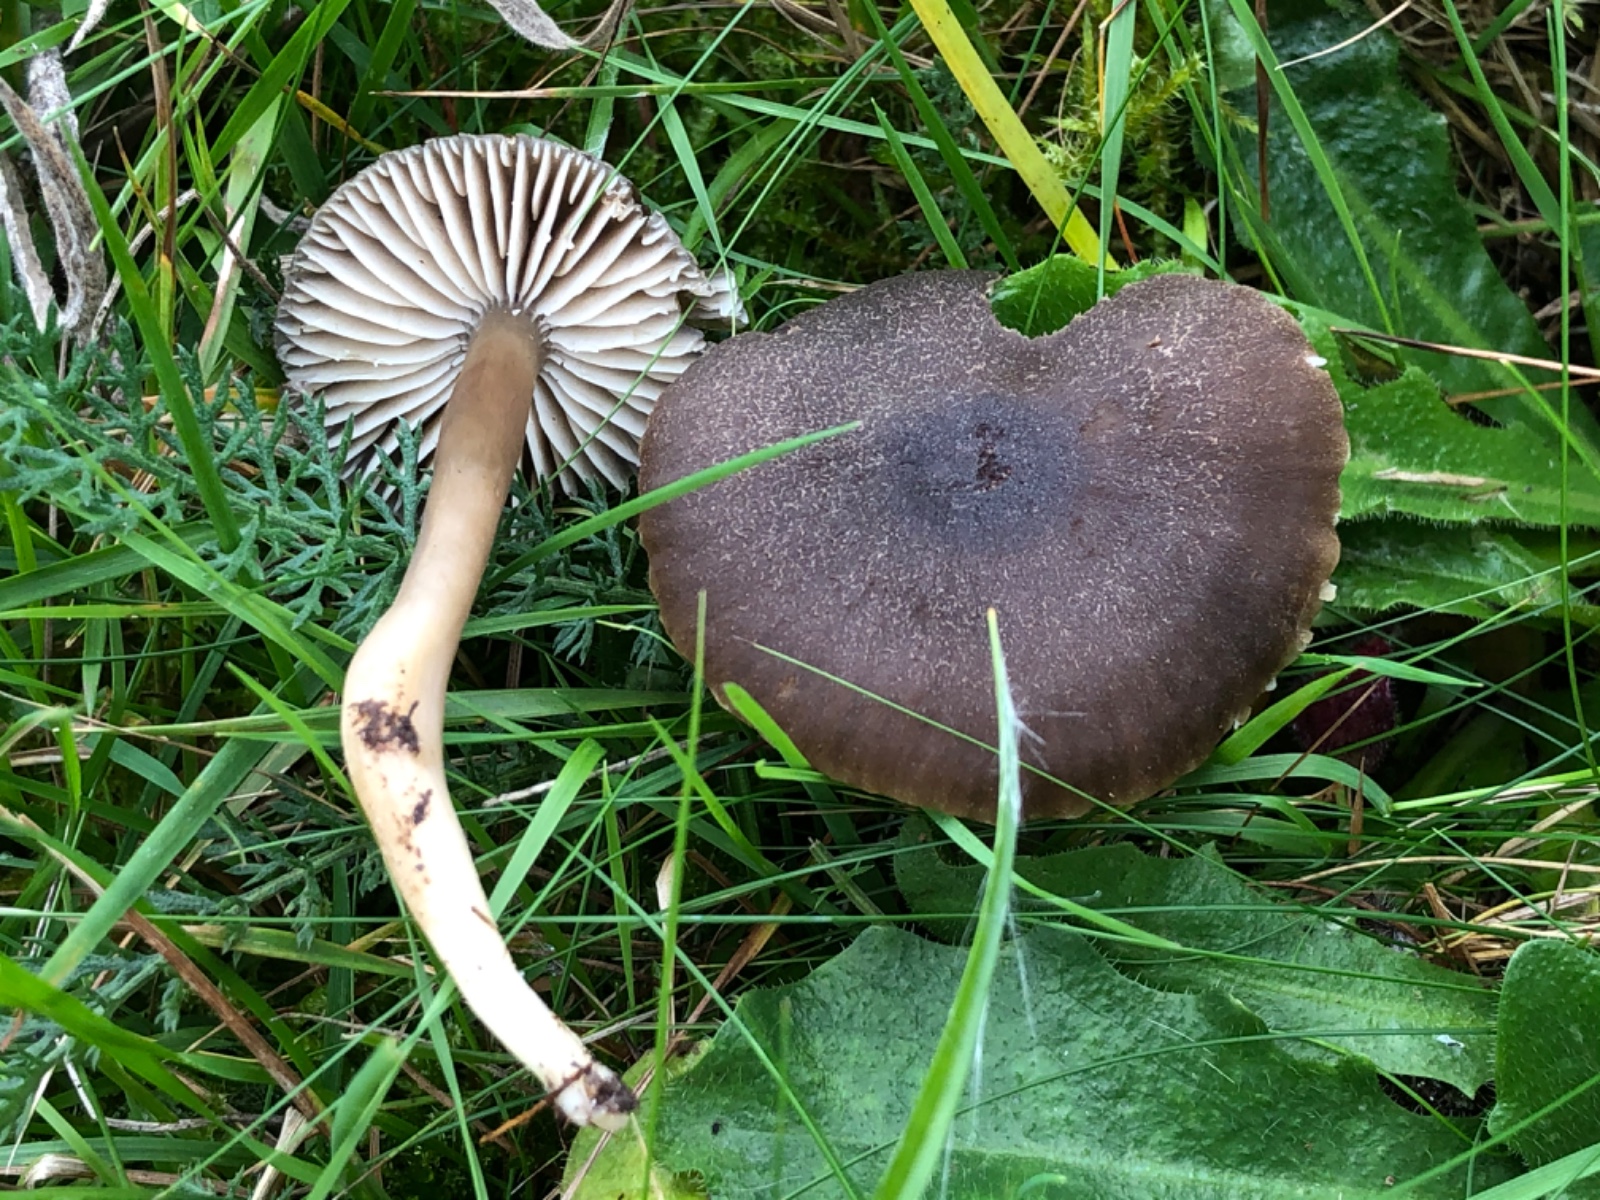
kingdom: Fungi
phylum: Basidiomycota
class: Agaricomycetes
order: Agaricales
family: Hygrophoraceae
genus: Neohygrocybe
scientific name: Neohygrocybe nitrata
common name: stinkende vokshat
